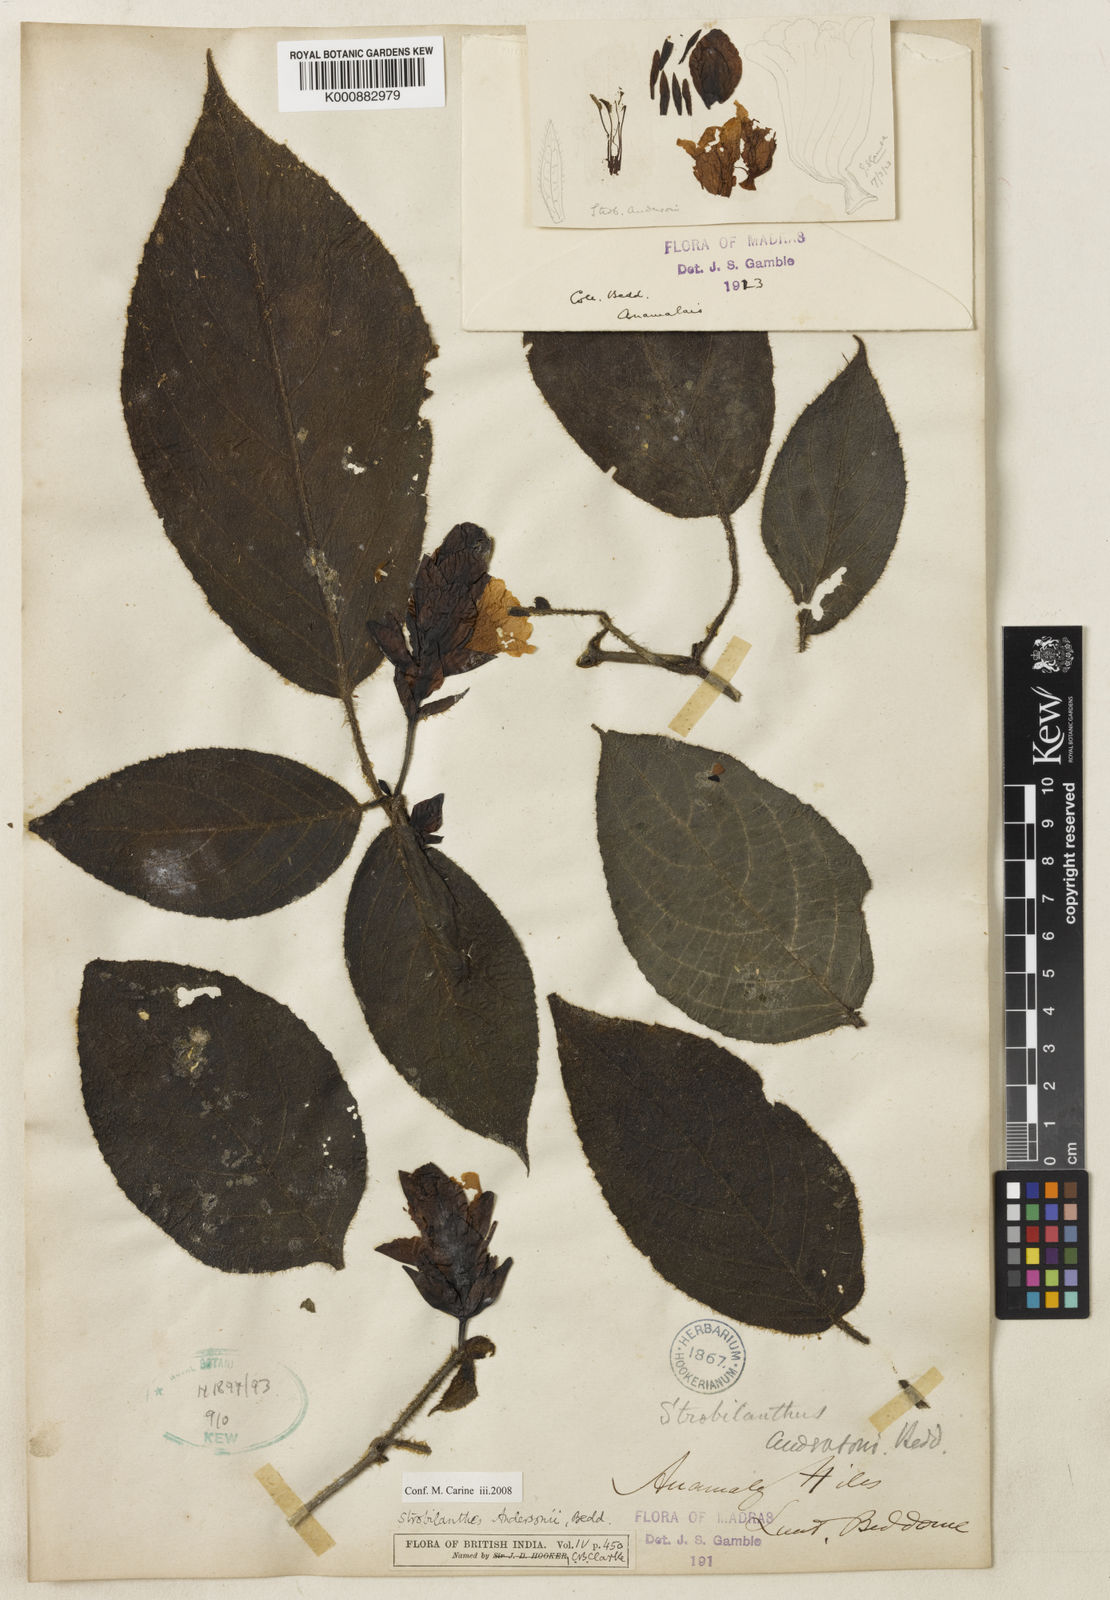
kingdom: Plantae
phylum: Tracheophyta
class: Magnoliopsida
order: Lamiales
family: Acanthaceae
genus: Strobilanthes
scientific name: Strobilanthes andersonii
